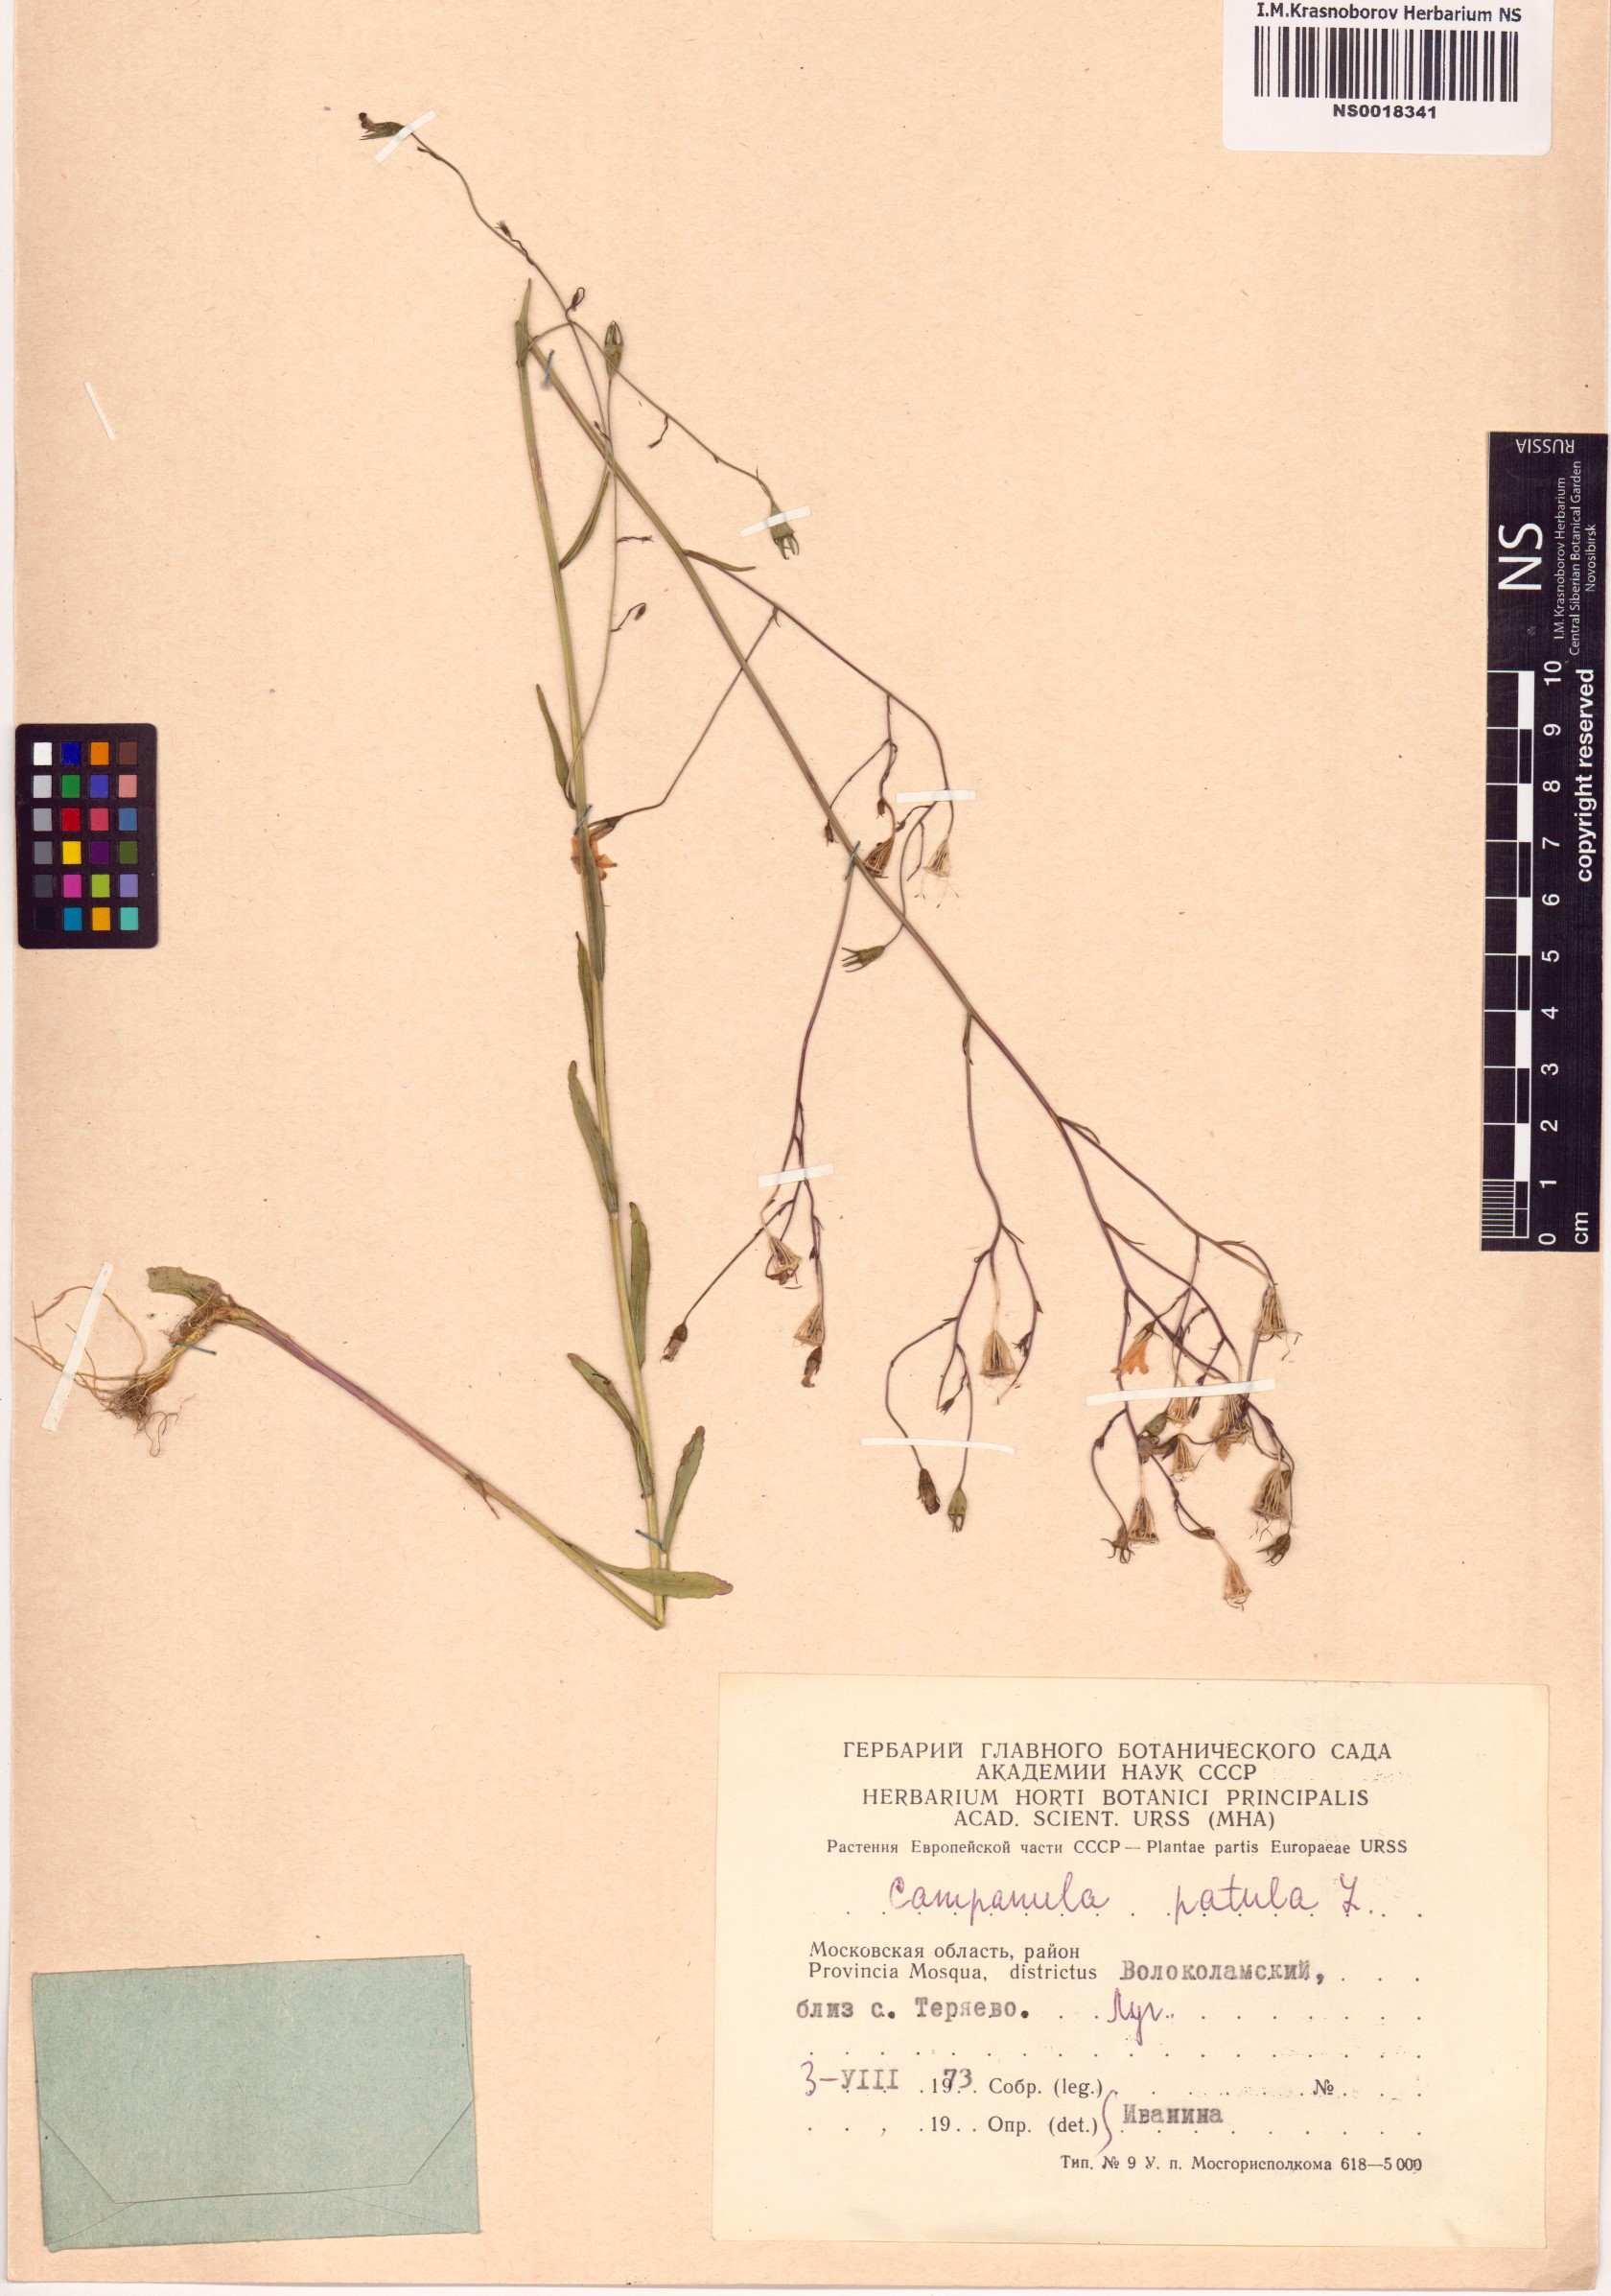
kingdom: Plantae
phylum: Tracheophyta
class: Magnoliopsida
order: Asterales
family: Campanulaceae
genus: Campanula
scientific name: Campanula patula
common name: Spreading bellflower
